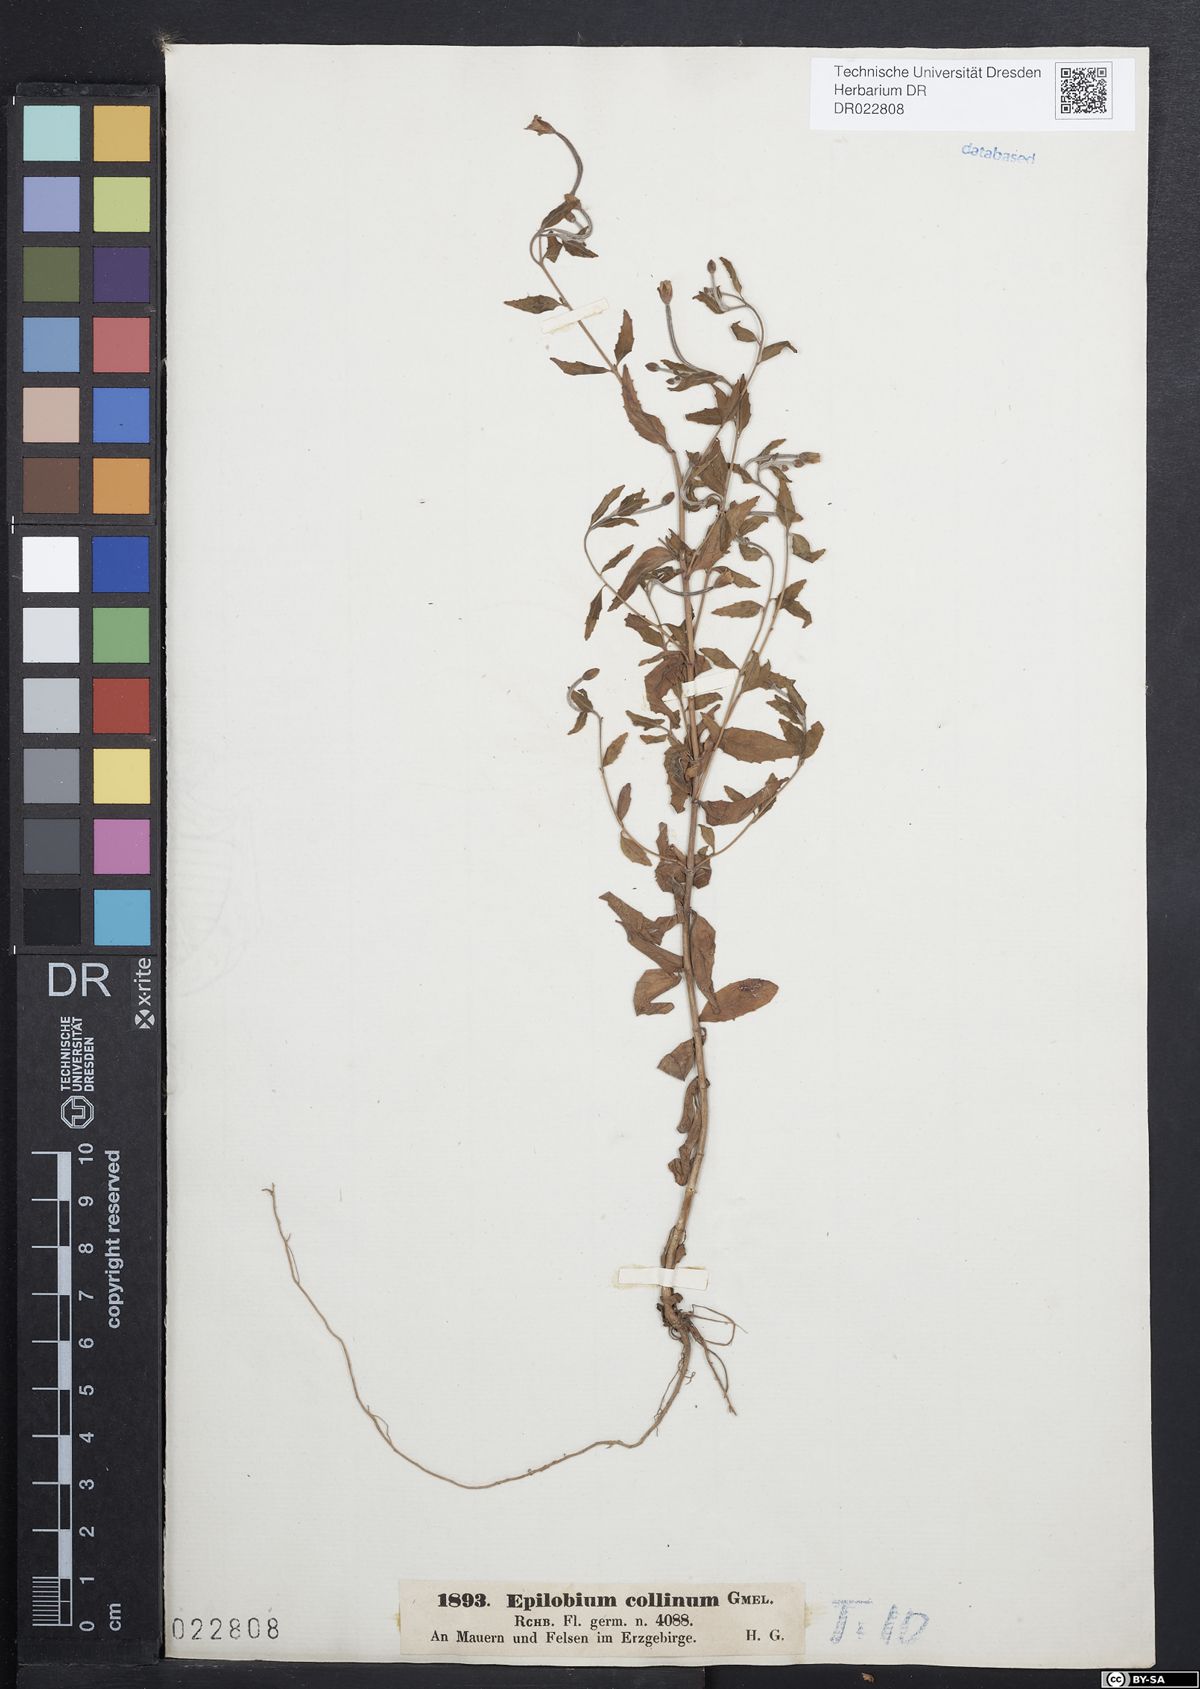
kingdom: Plantae
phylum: Tracheophyta
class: Magnoliopsida
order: Myrtales
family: Onagraceae
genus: Epilobium
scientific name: Epilobium collinum
